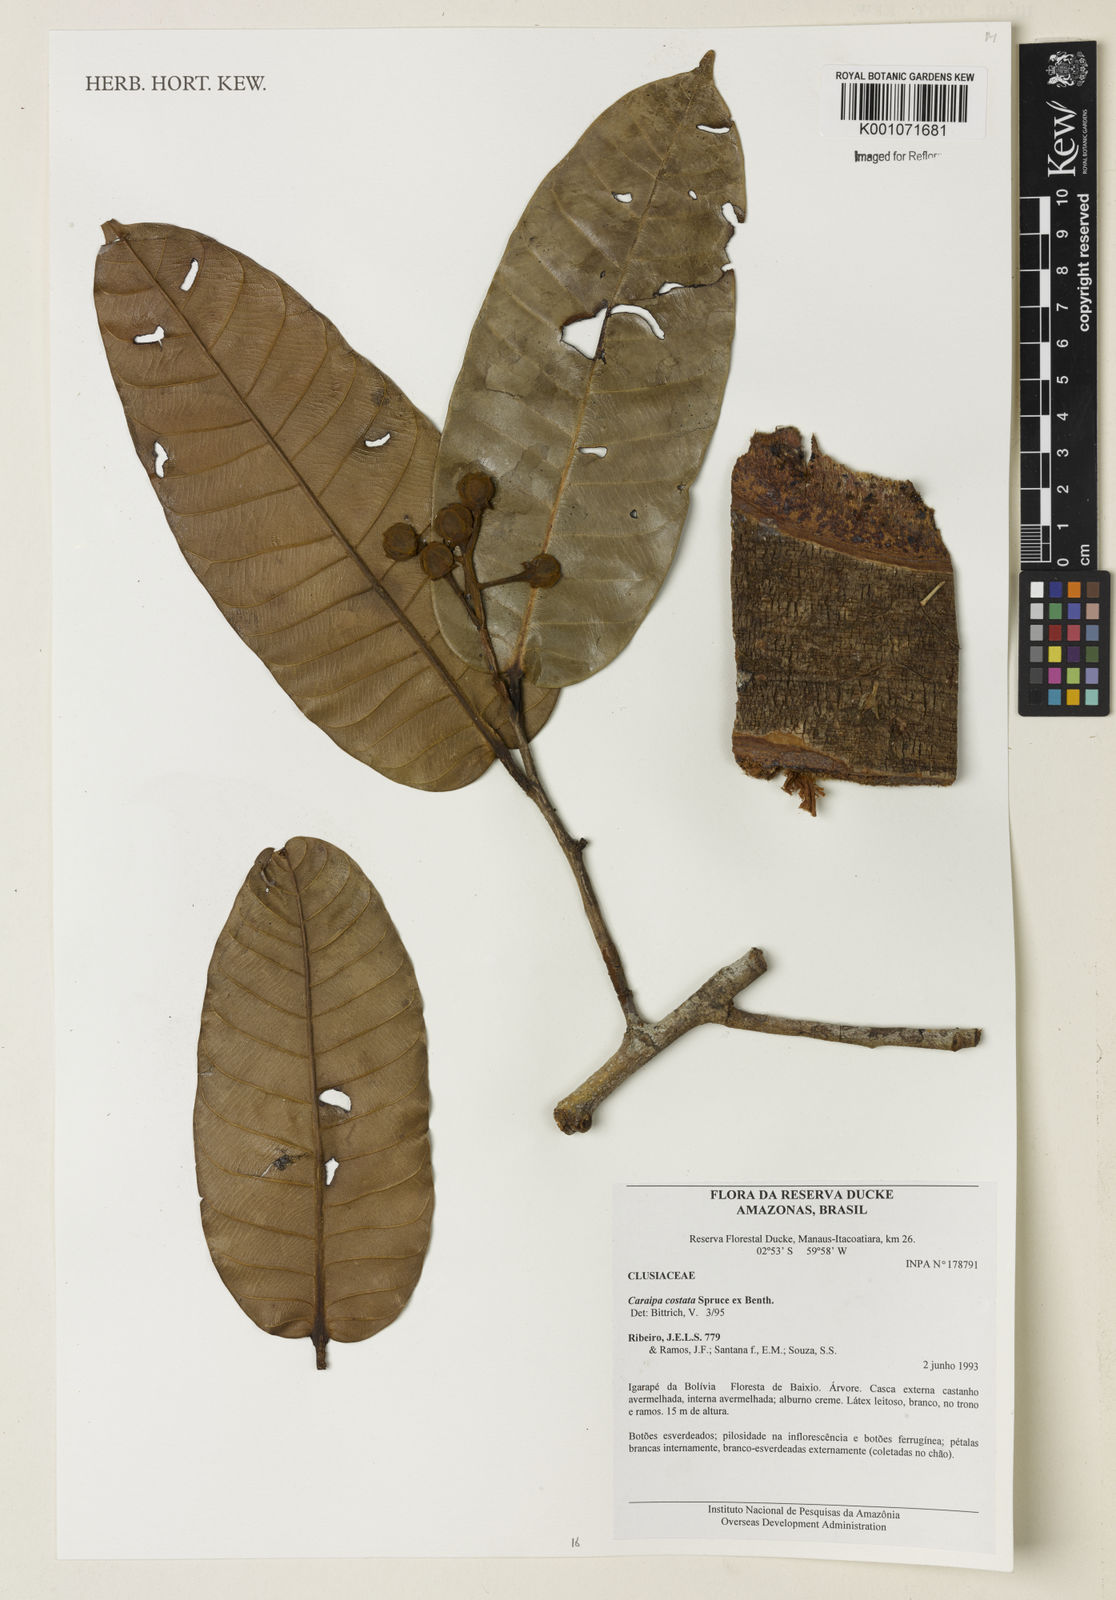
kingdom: Plantae
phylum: Tracheophyta
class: Magnoliopsida
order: Malpighiales
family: Calophyllaceae
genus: Caraipa
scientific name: Caraipa costata
